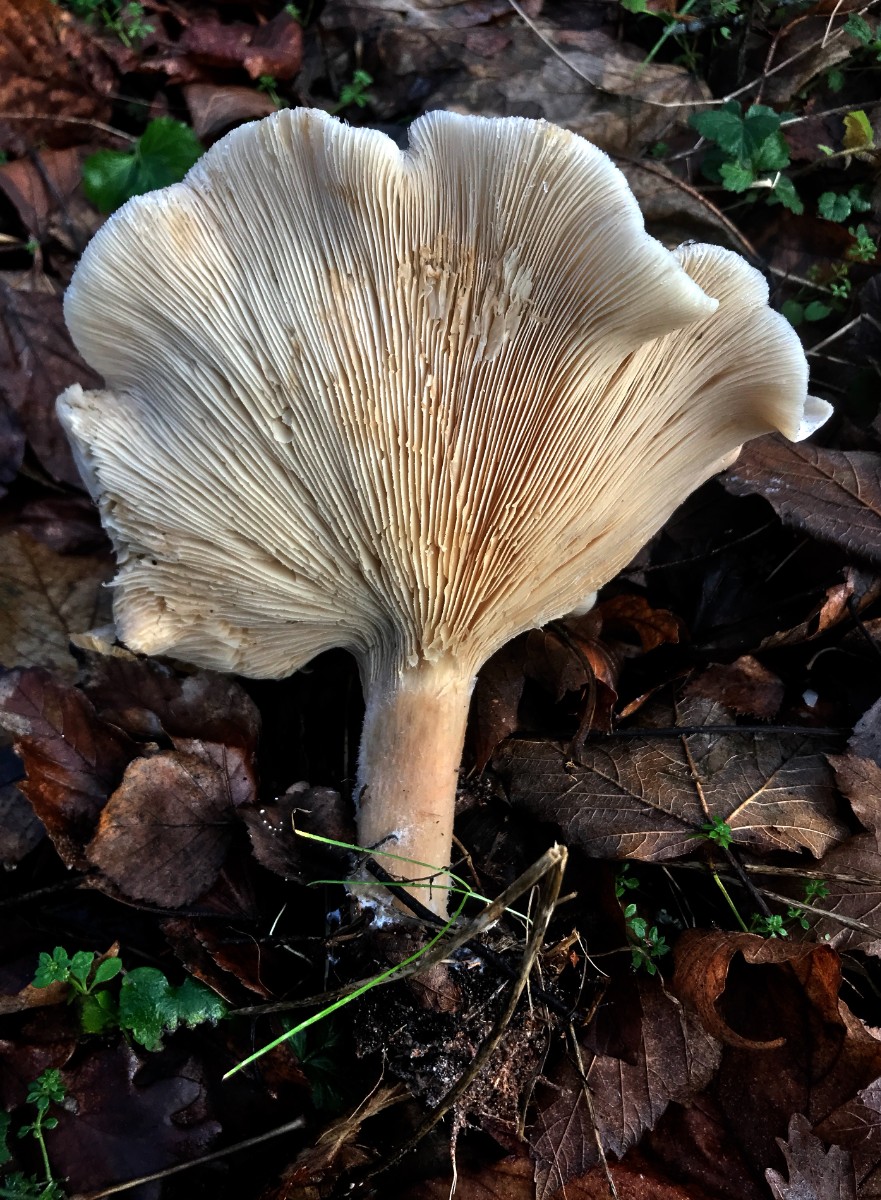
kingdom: Fungi
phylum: Basidiomycota
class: Agaricomycetes
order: Agaricales
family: Tricholomataceae
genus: Infundibulicybe
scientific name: Infundibulicybe geotropa
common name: stor tragthat
